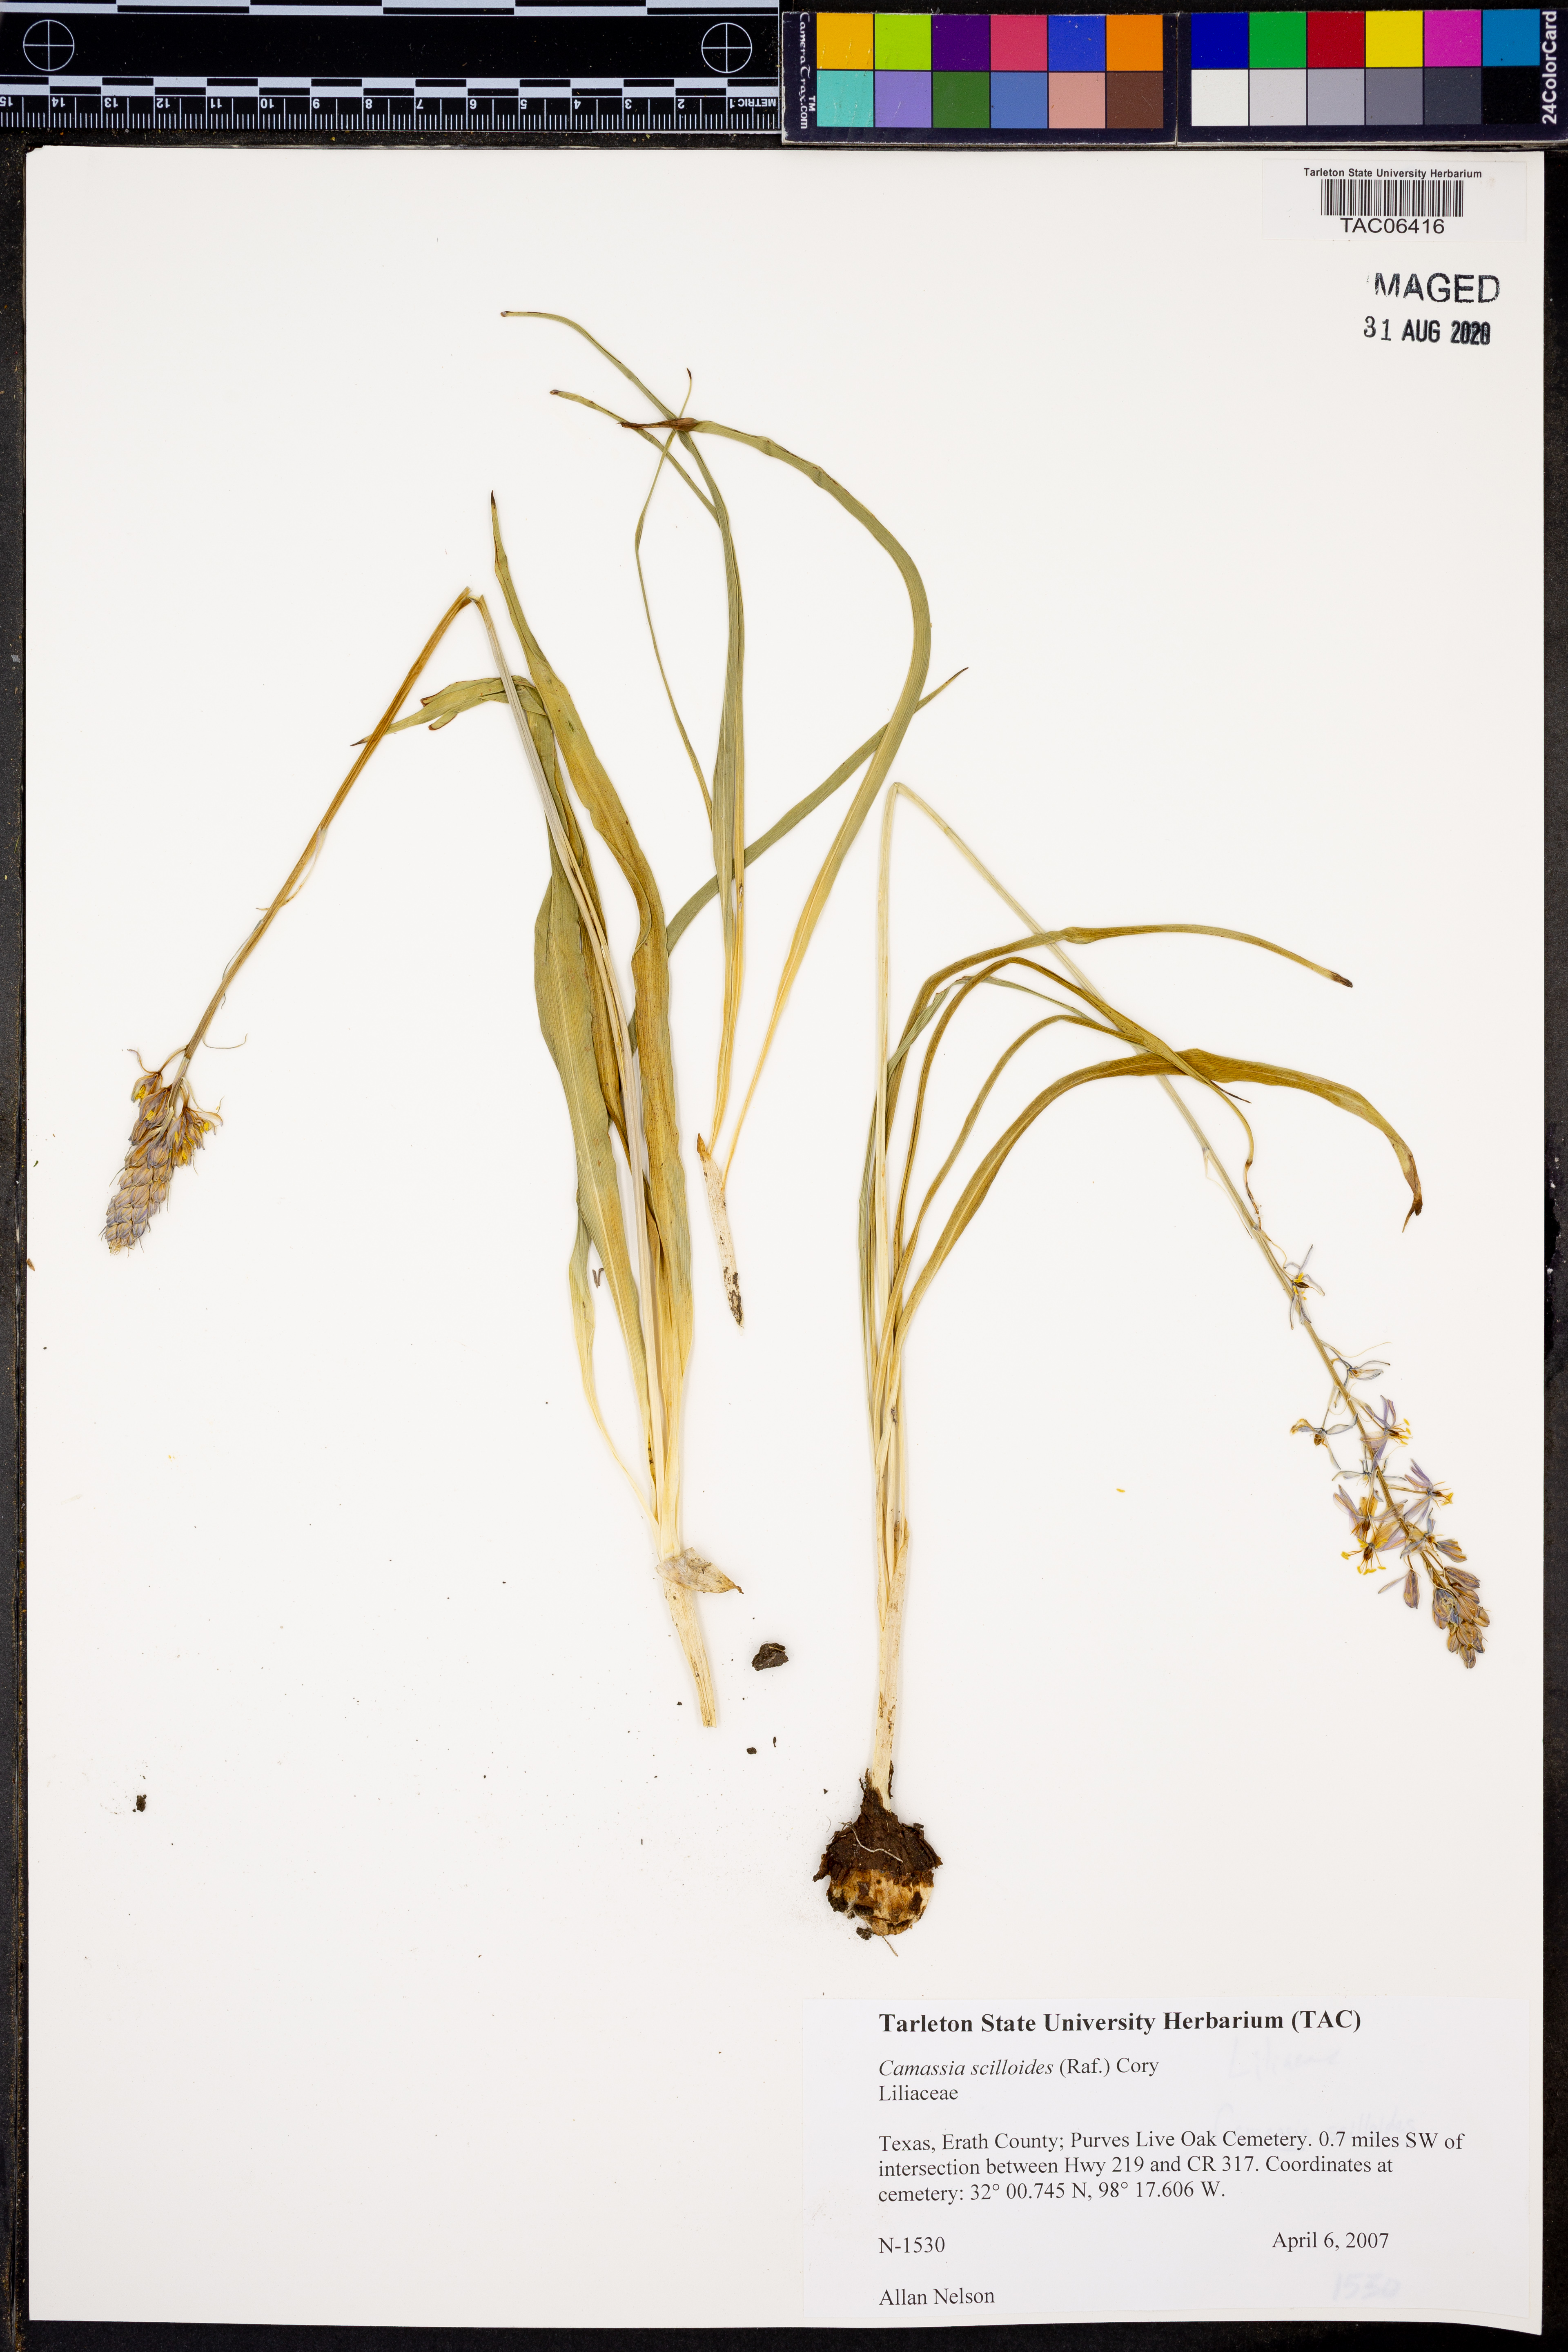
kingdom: Plantae
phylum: Tracheophyta
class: Liliopsida
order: Asparagales
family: Asparagaceae
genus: Camassia
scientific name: Camassia scilloides
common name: Wild hyacinth
